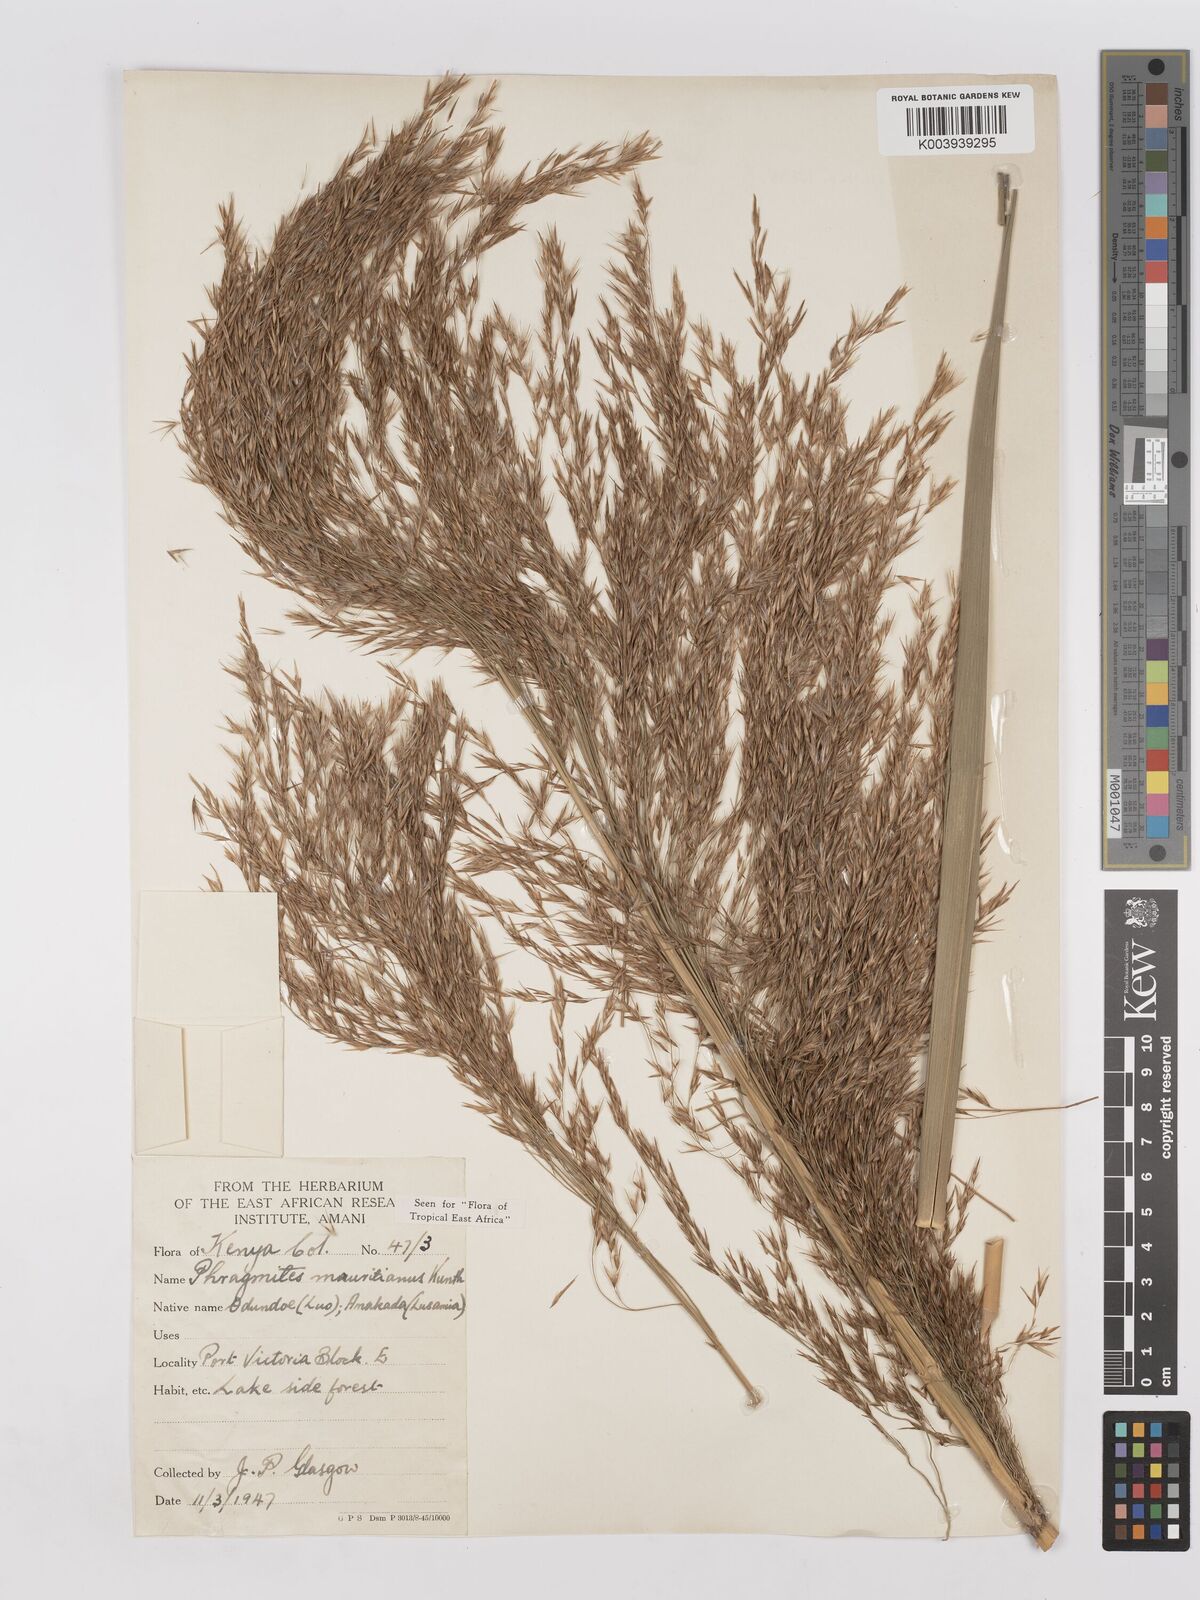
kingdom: Plantae
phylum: Tracheophyta
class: Liliopsida
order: Poales
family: Poaceae
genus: Phragmites
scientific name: Phragmites mauritianus
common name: Reed grass
